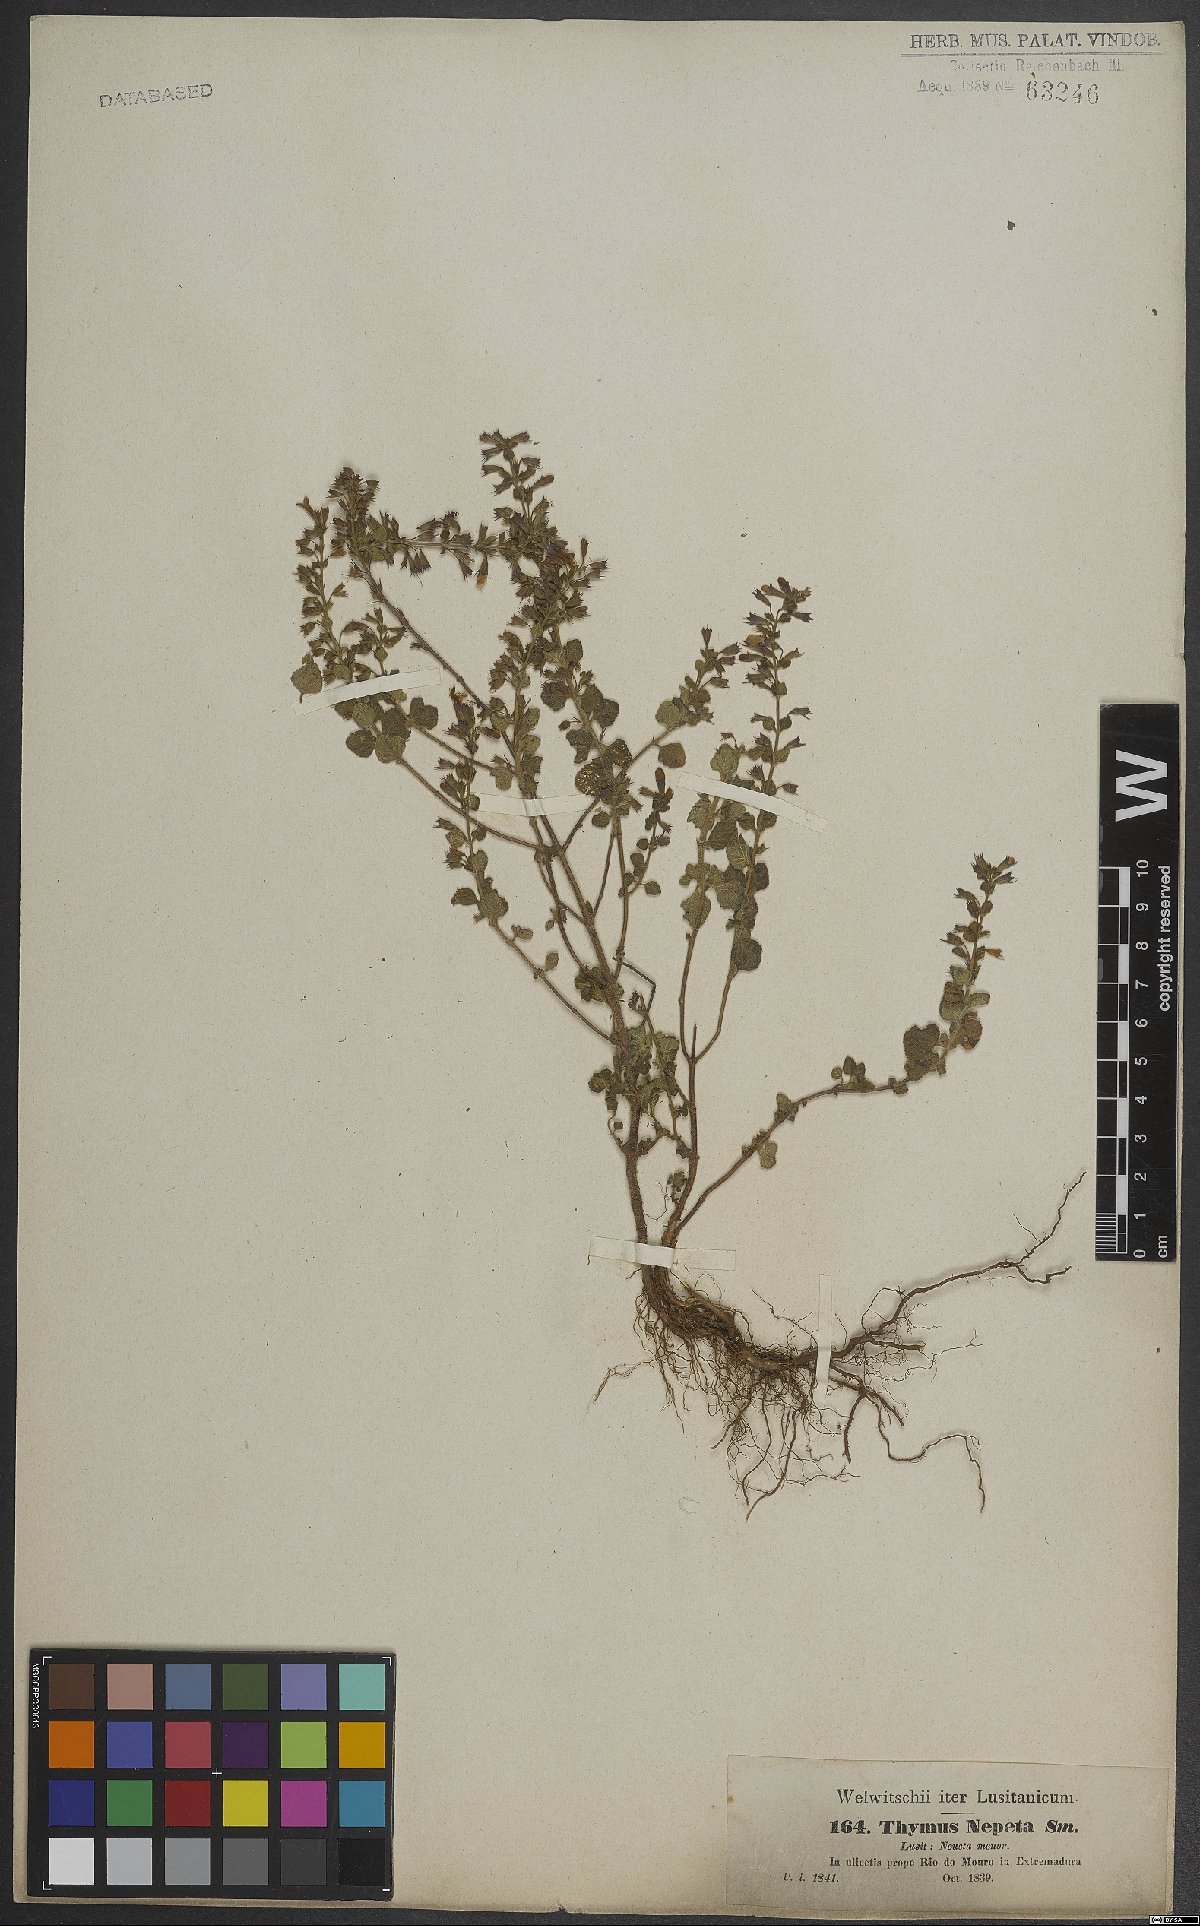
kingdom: Plantae
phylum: Tracheophyta
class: Magnoliopsida
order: Lamiales
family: Lamiaceae
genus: Clinopodium
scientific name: Clinopodium heterotrichum
